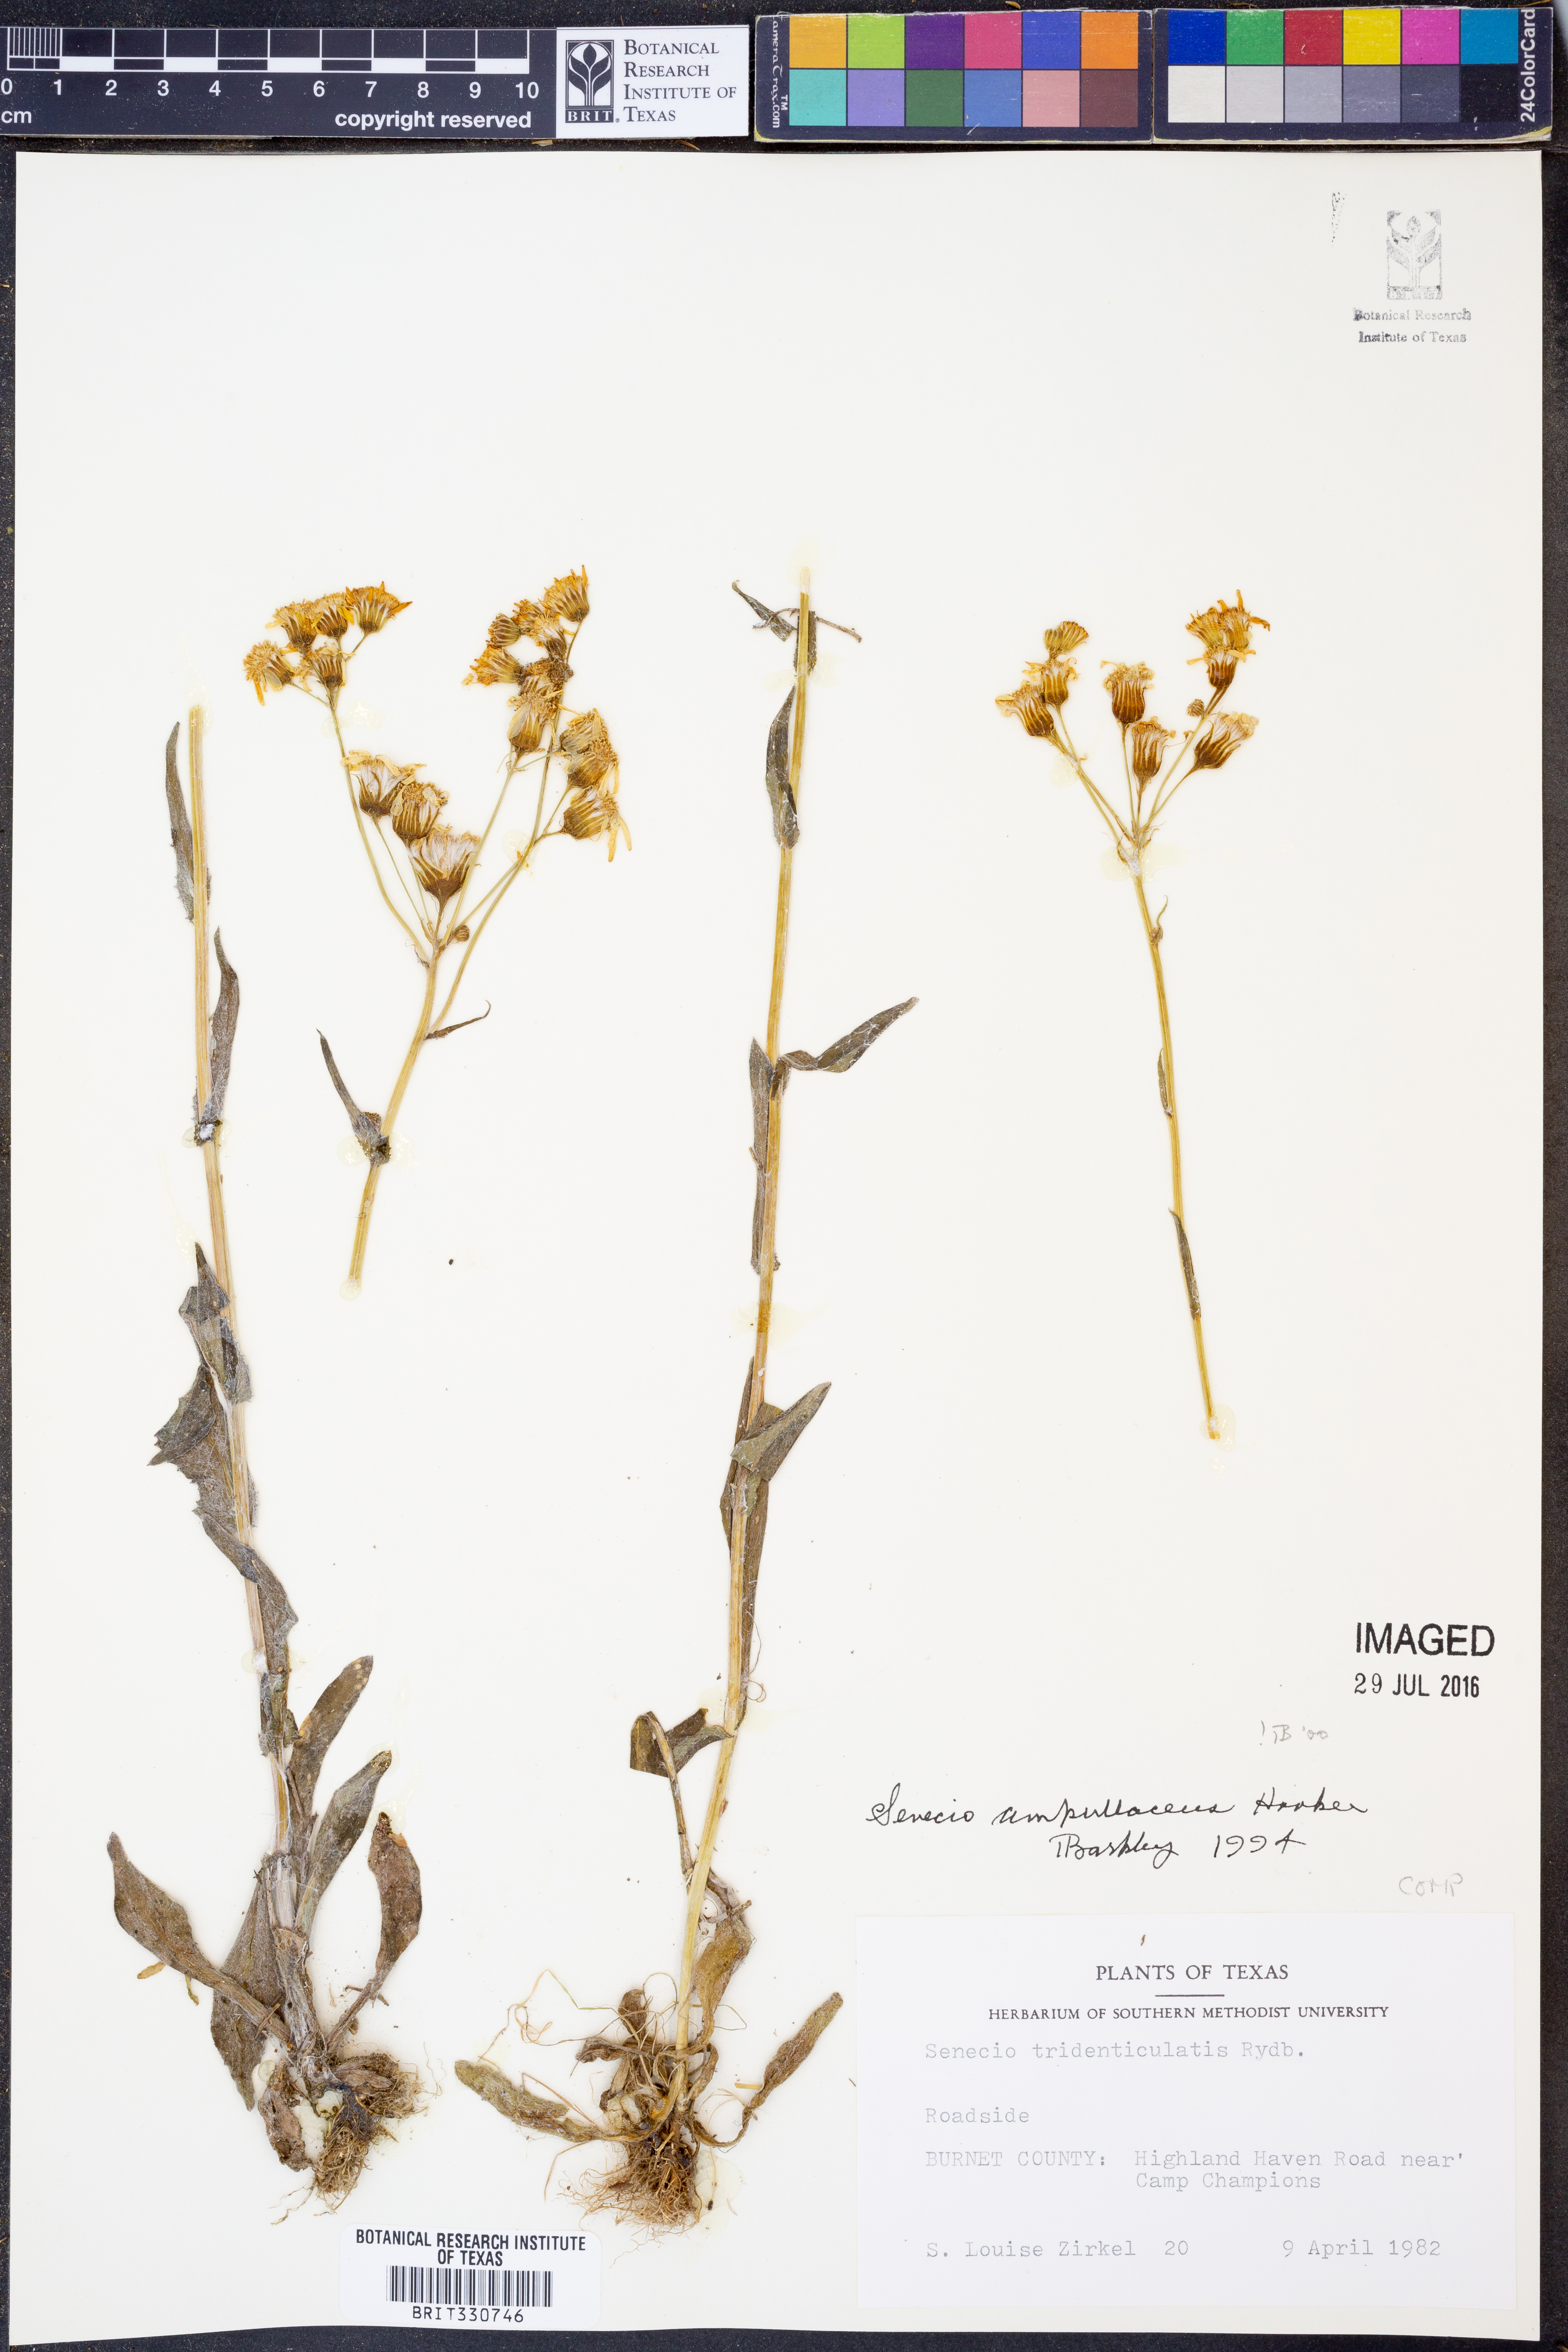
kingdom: Plantae
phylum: Tracheophyta
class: Magnoliopsida
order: Asterales
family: Asteraceae
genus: Senecio
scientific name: Senecio ampullaceus
